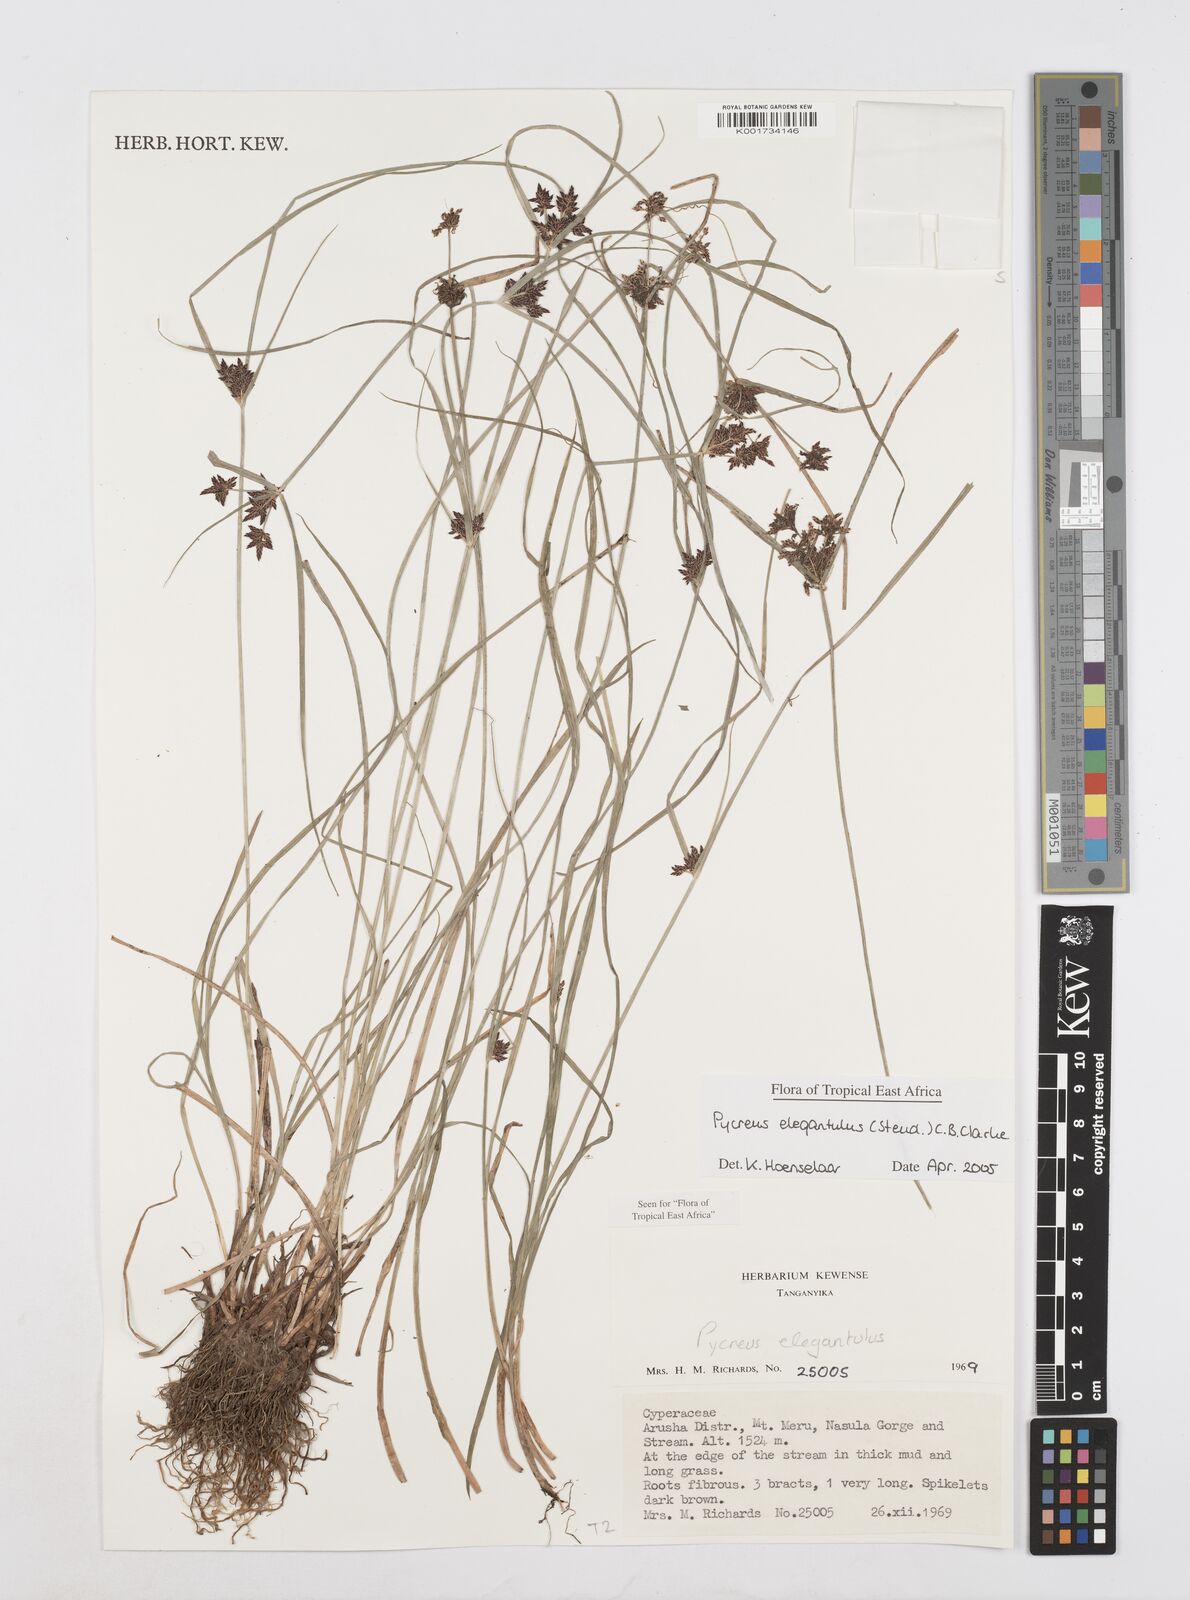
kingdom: Plantae
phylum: Tracheophyta
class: Liliopsida
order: Poales
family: Cyperaceae
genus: Cyperus
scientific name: Cyperus elegantulus
